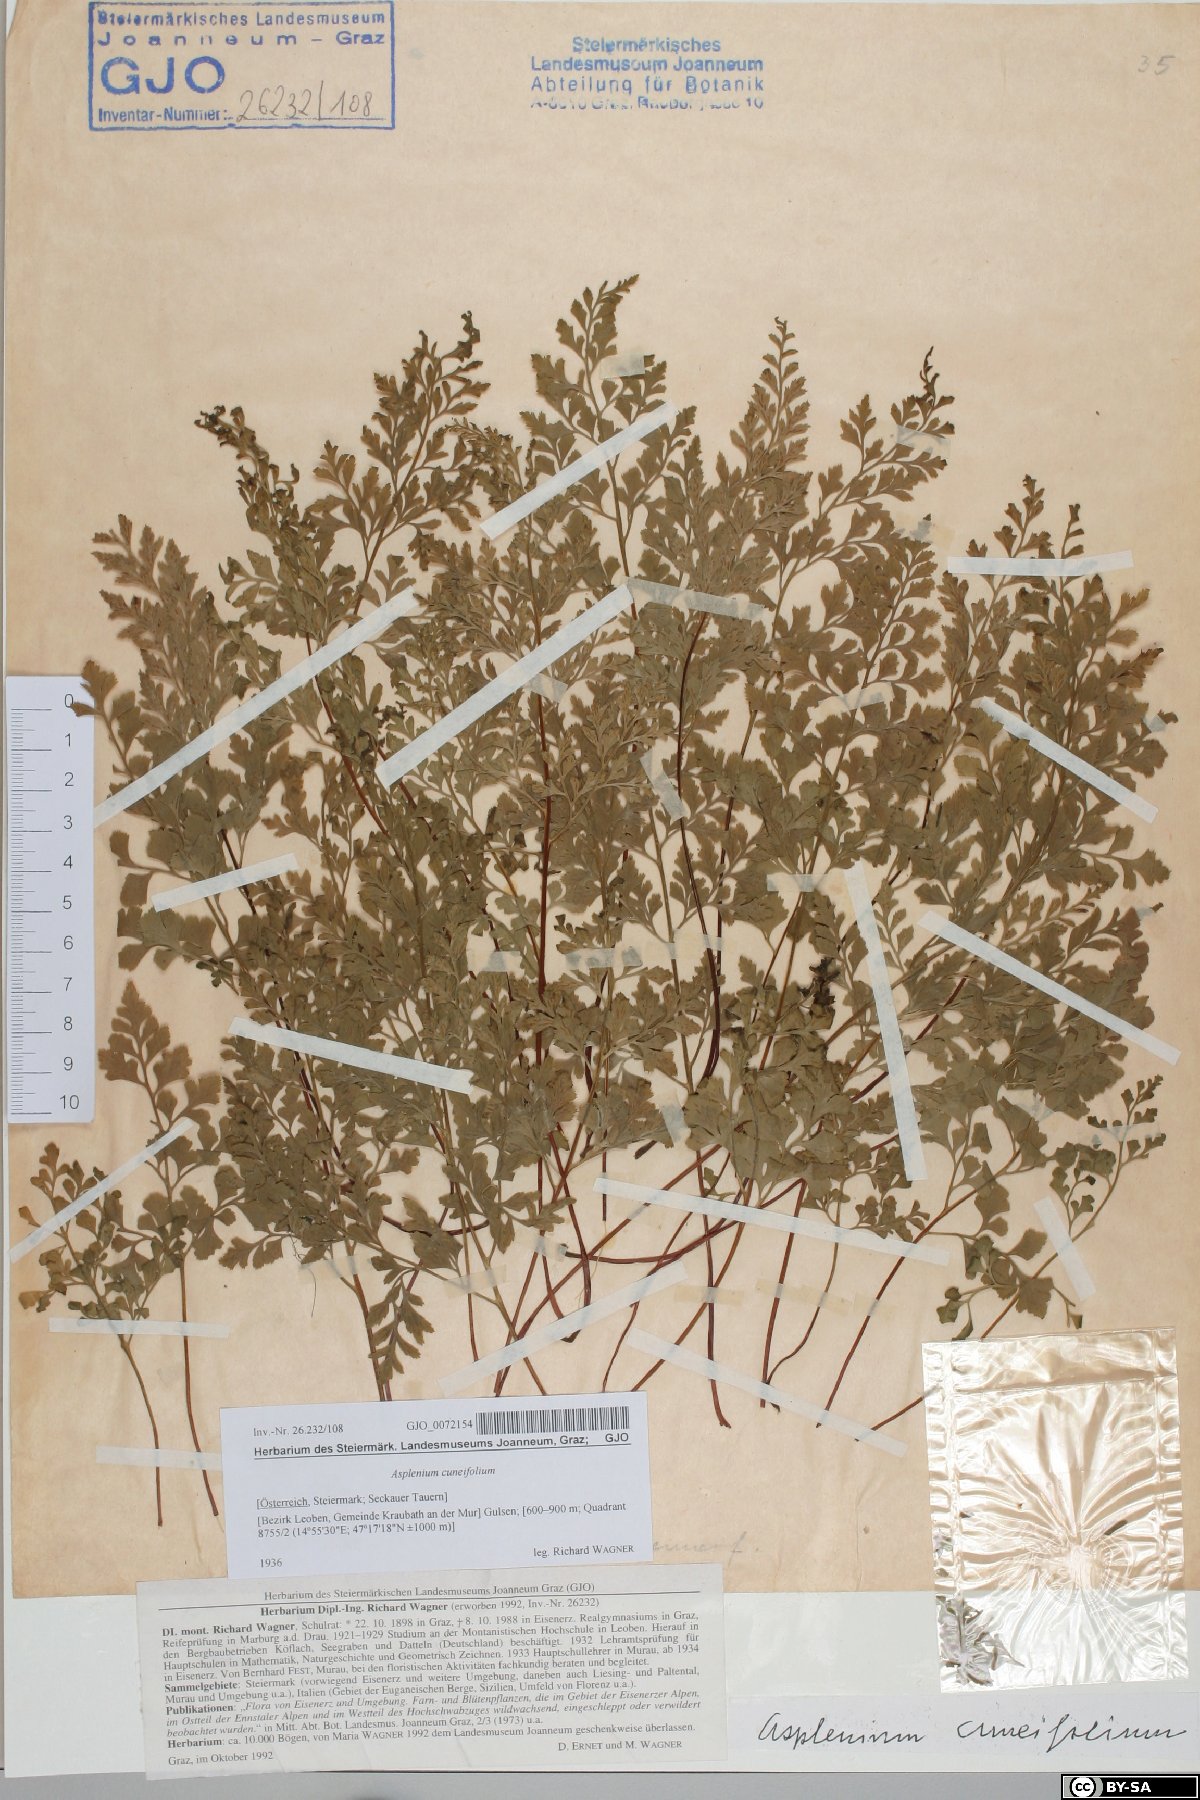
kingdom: Plantae
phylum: Tracheophyta
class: Polypodiopsida
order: Polypodiales
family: Aspleniaceae
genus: Asplenium
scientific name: Asplenium cuneifolium
